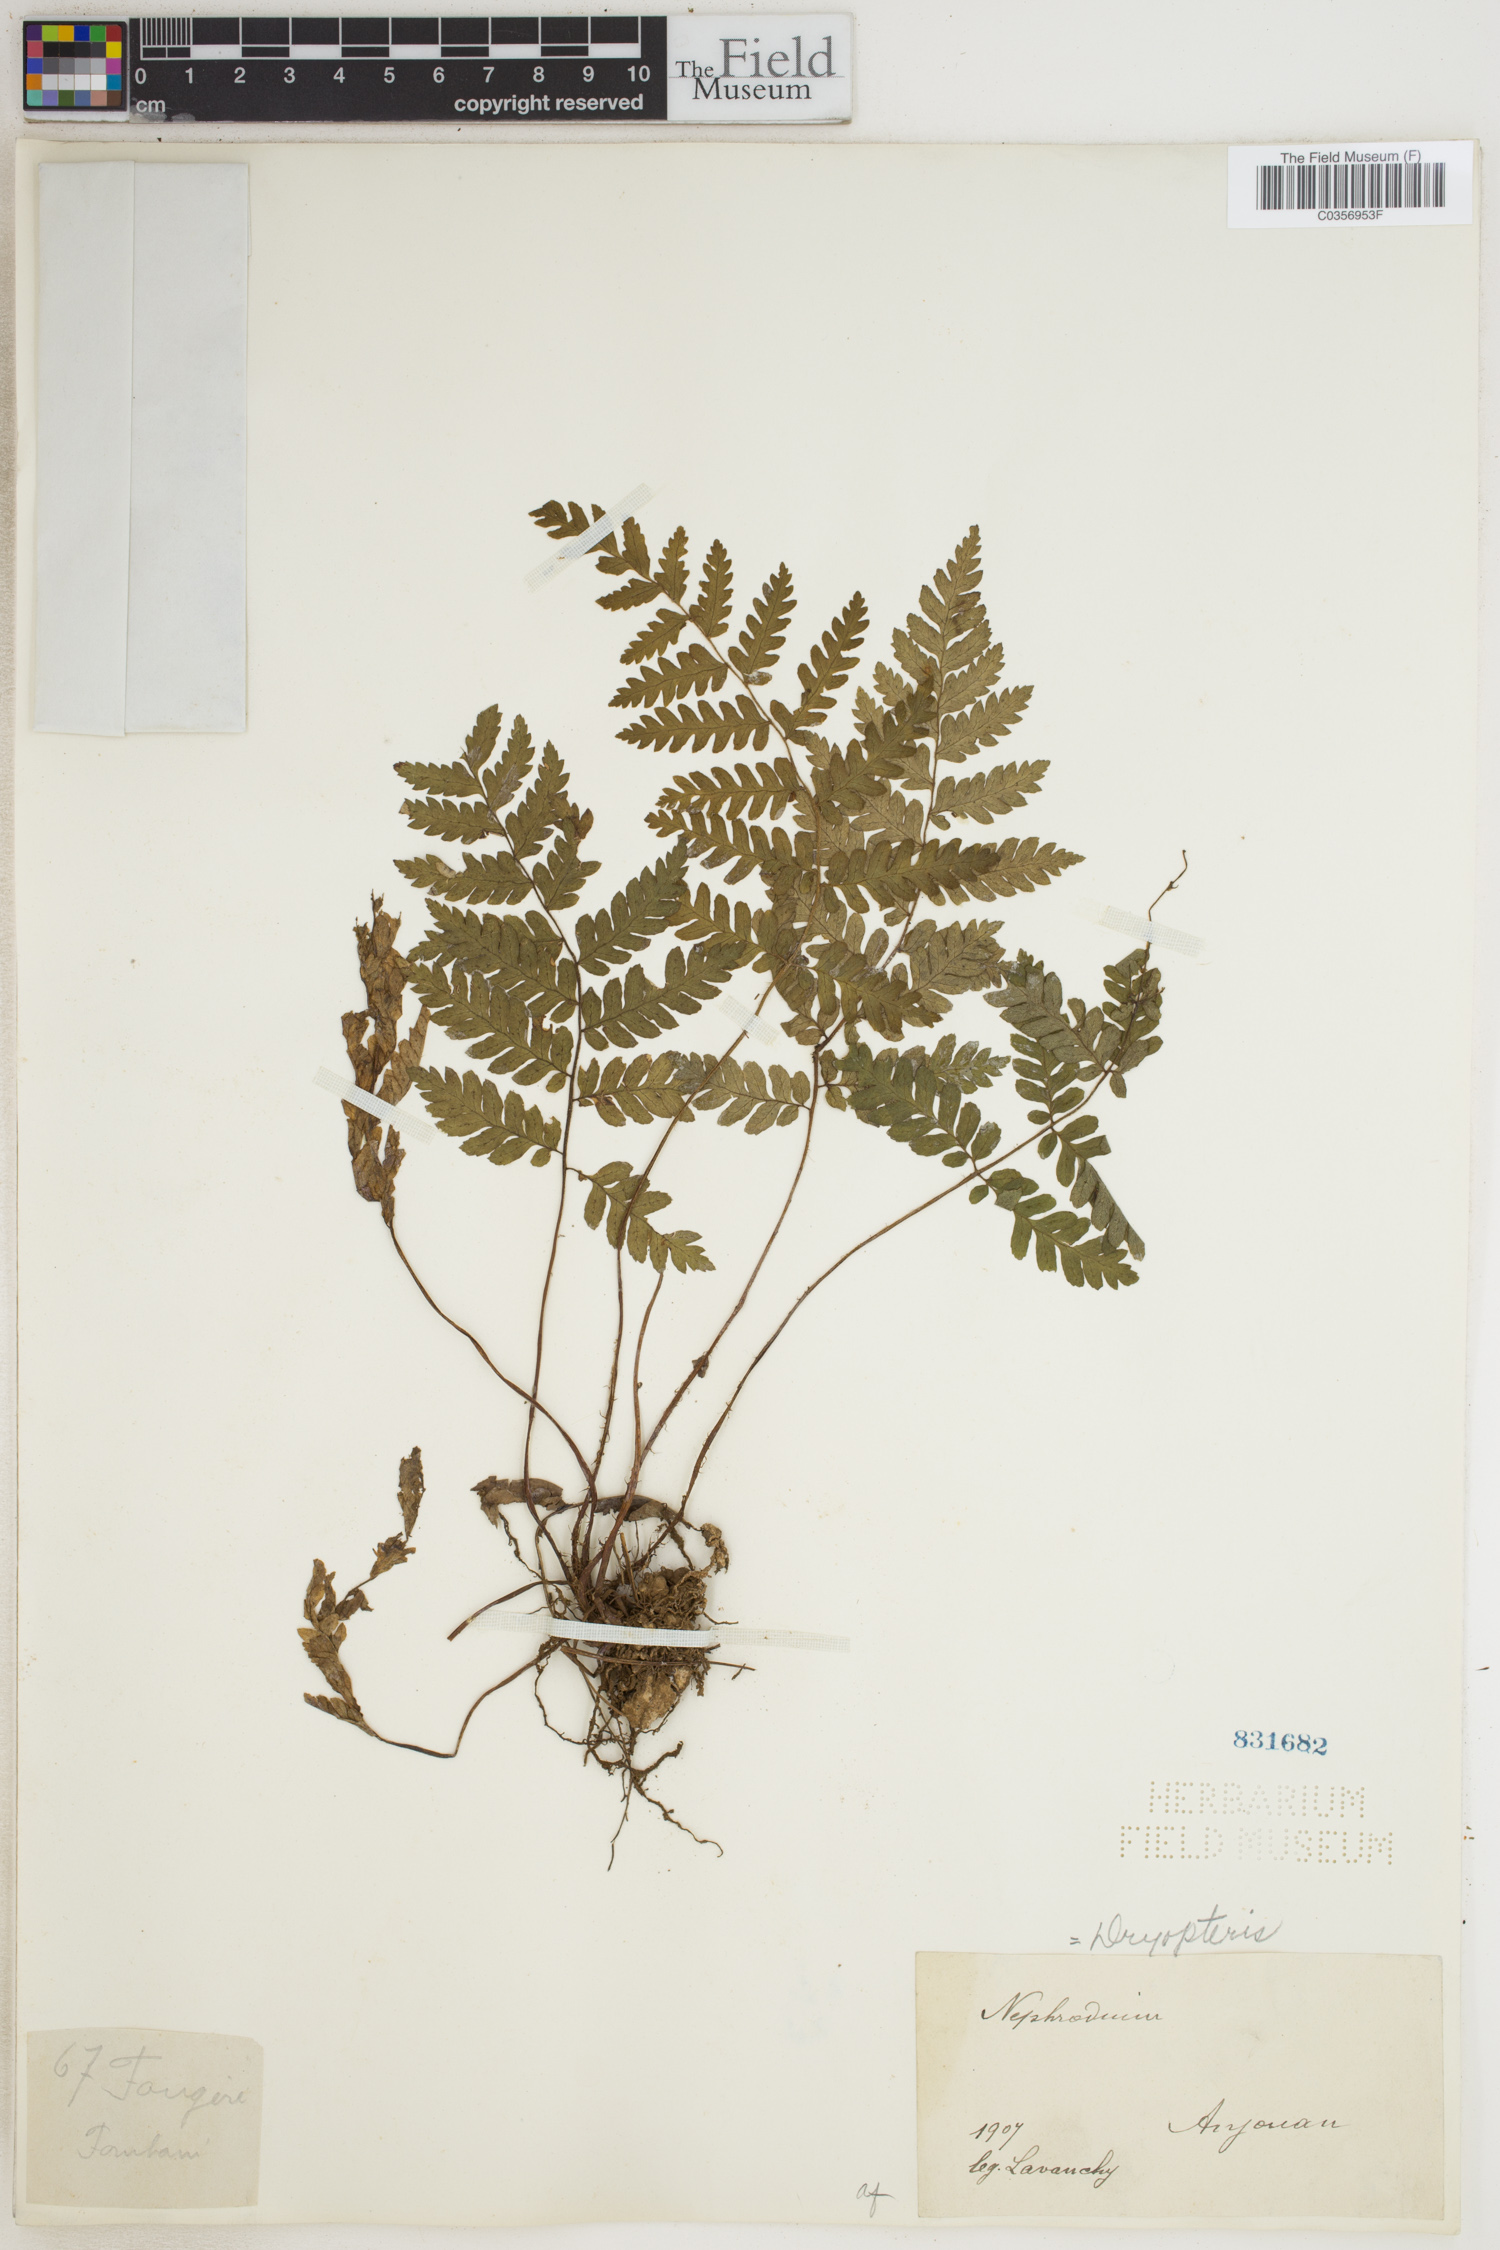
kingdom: Plantae
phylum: Tracheophyta
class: Polypodiopsida
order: Polypodiales
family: Dryopteridaceae
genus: Dryopteris
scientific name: Dryopteris
